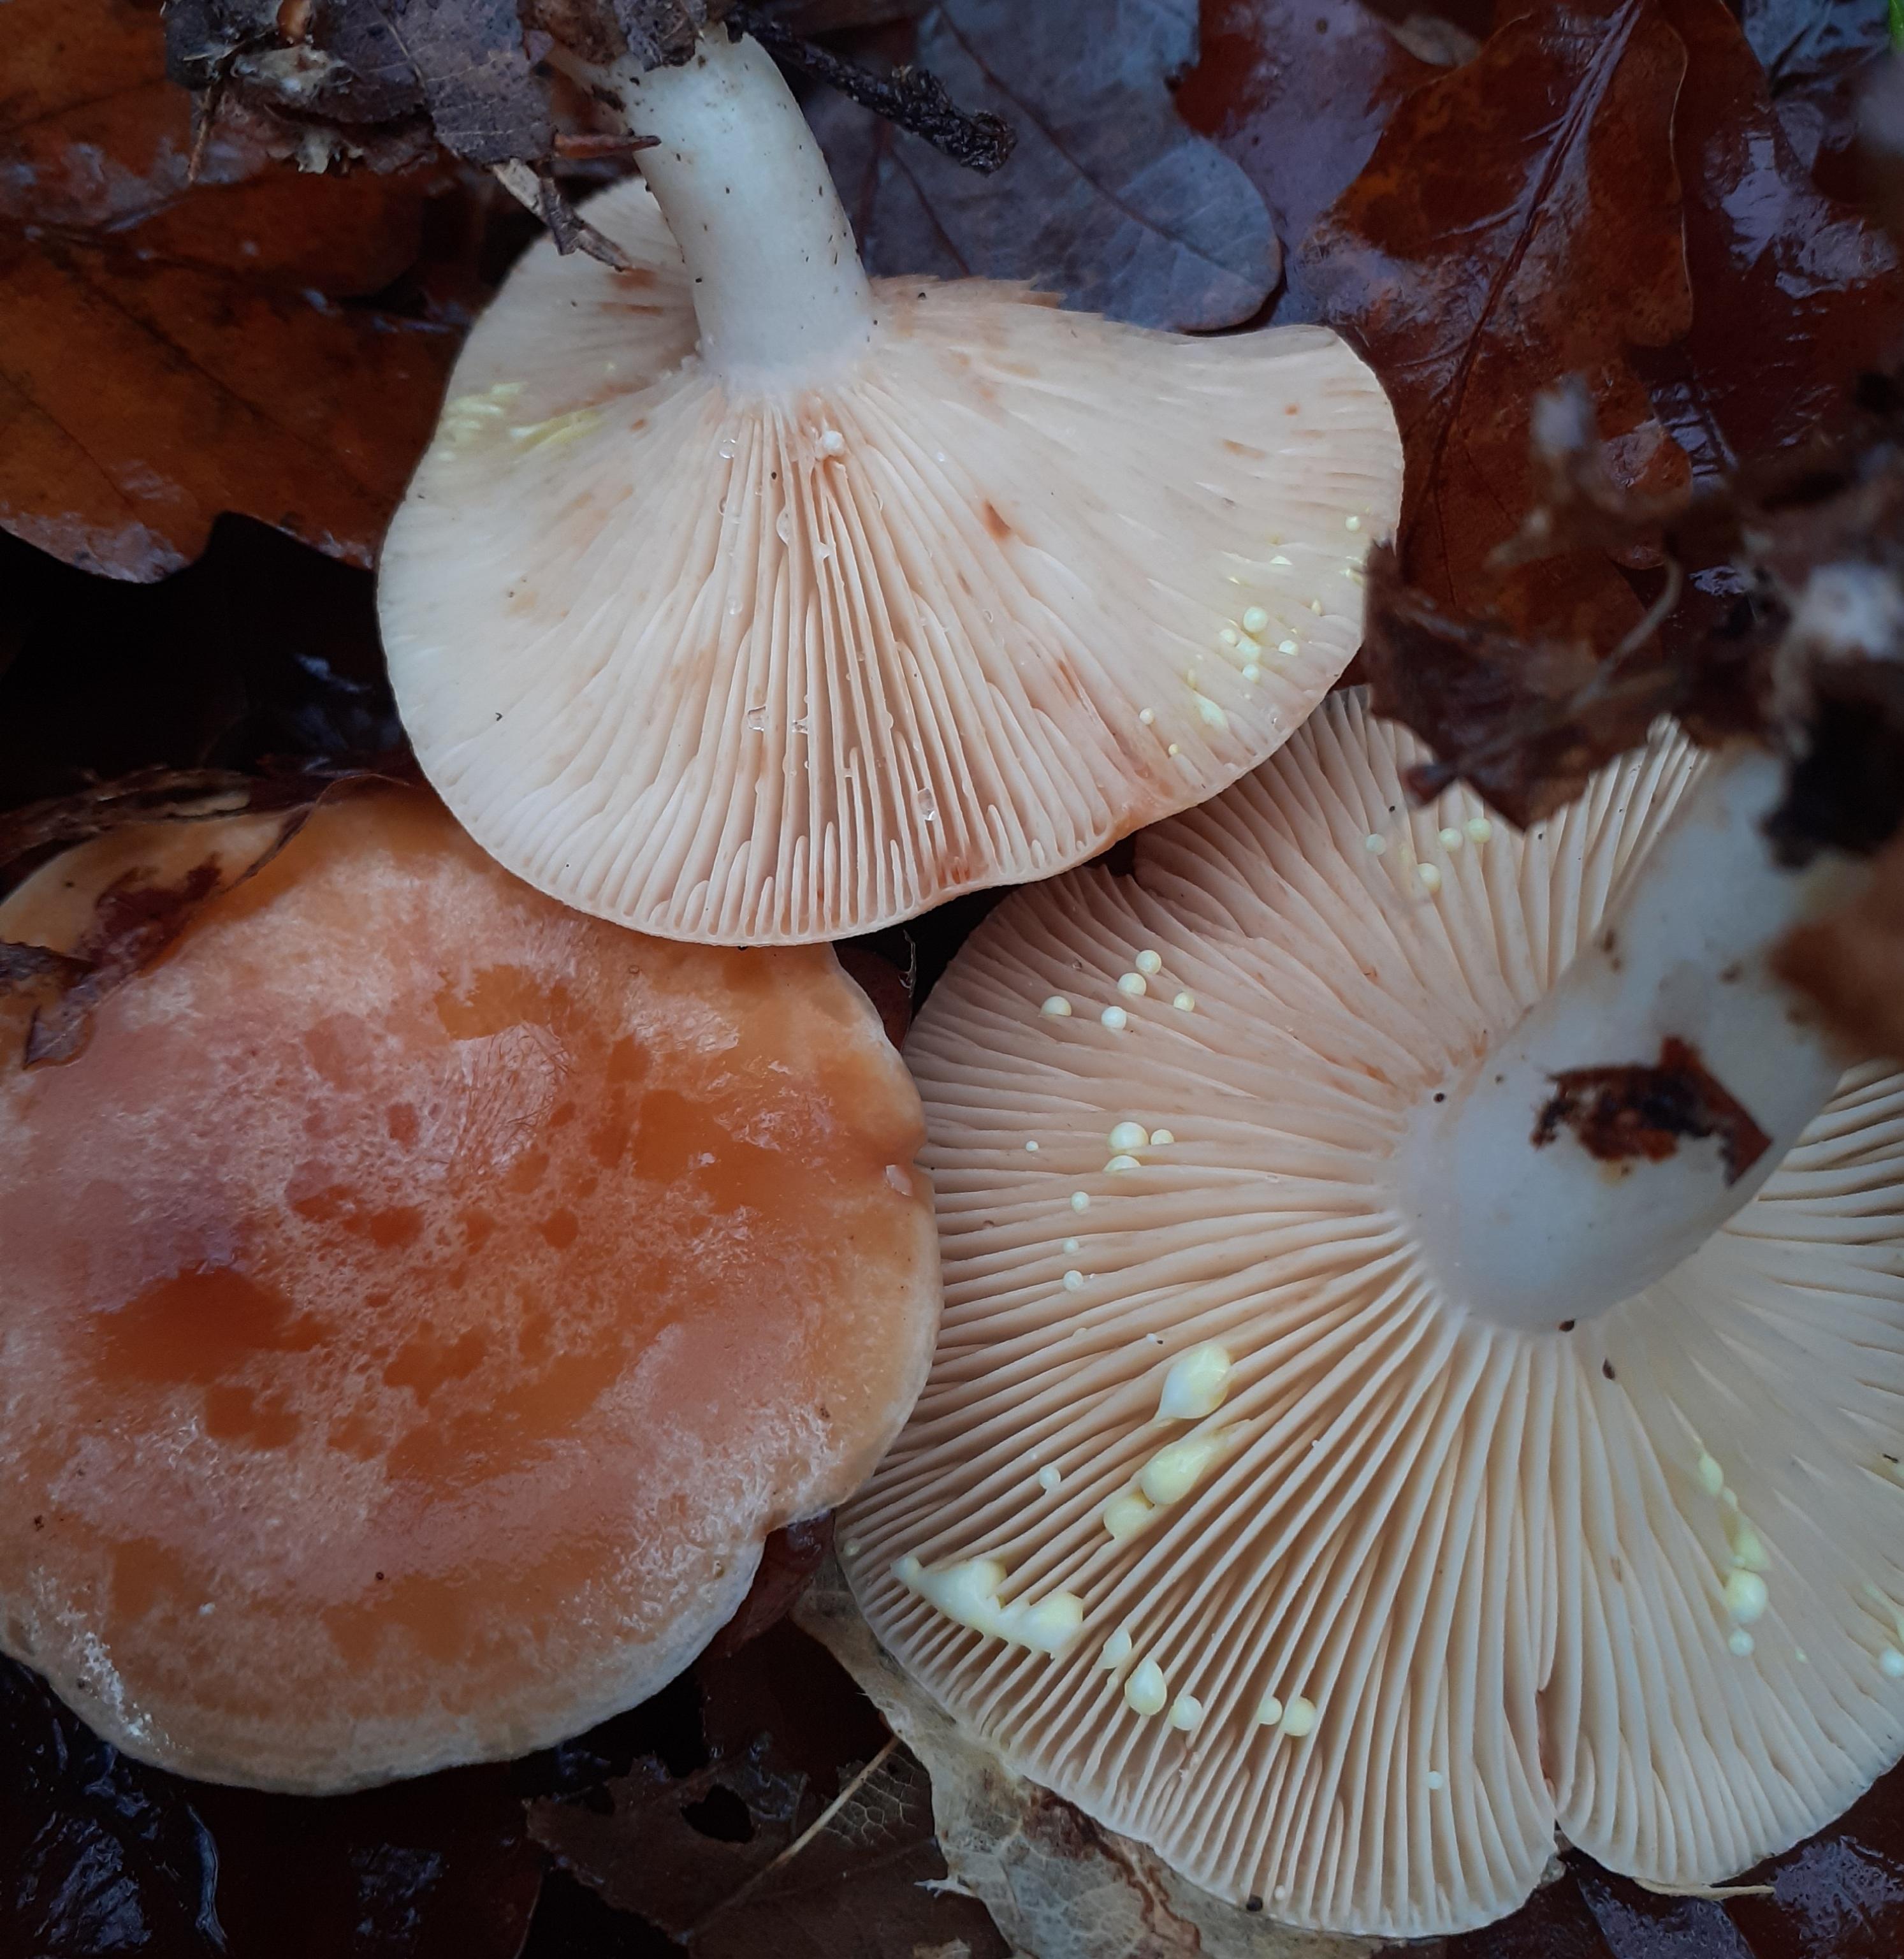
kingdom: Fungi
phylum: Basidiomycota
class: Agaricomycetes
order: Russulales
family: Russulaceae
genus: Lactarius
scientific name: Lactarius chrysorrheus
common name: svovlmælket mælkehat
